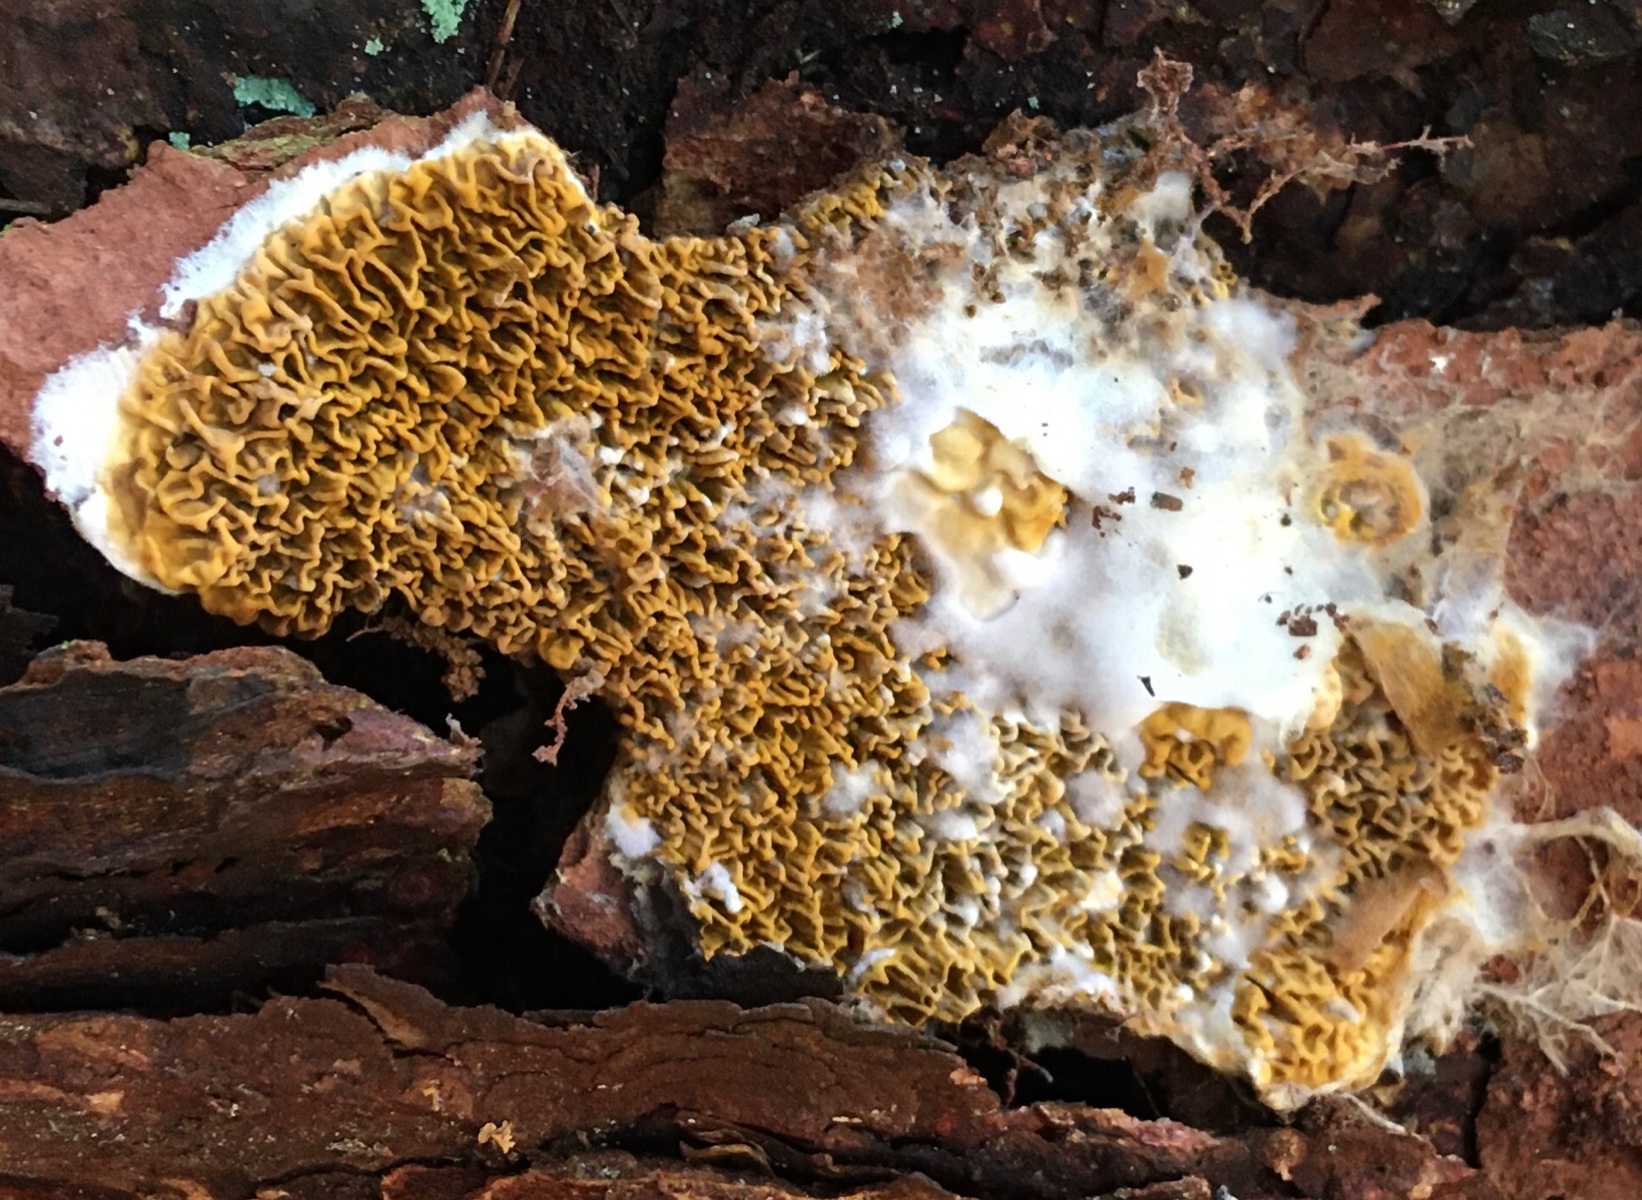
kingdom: Fungi
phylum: Basidiomycota
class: Agaricomycetes
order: Boletales
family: Serpulaceae
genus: Serpula
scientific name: Serpula himantioides
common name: tyndkødet hussvamp
